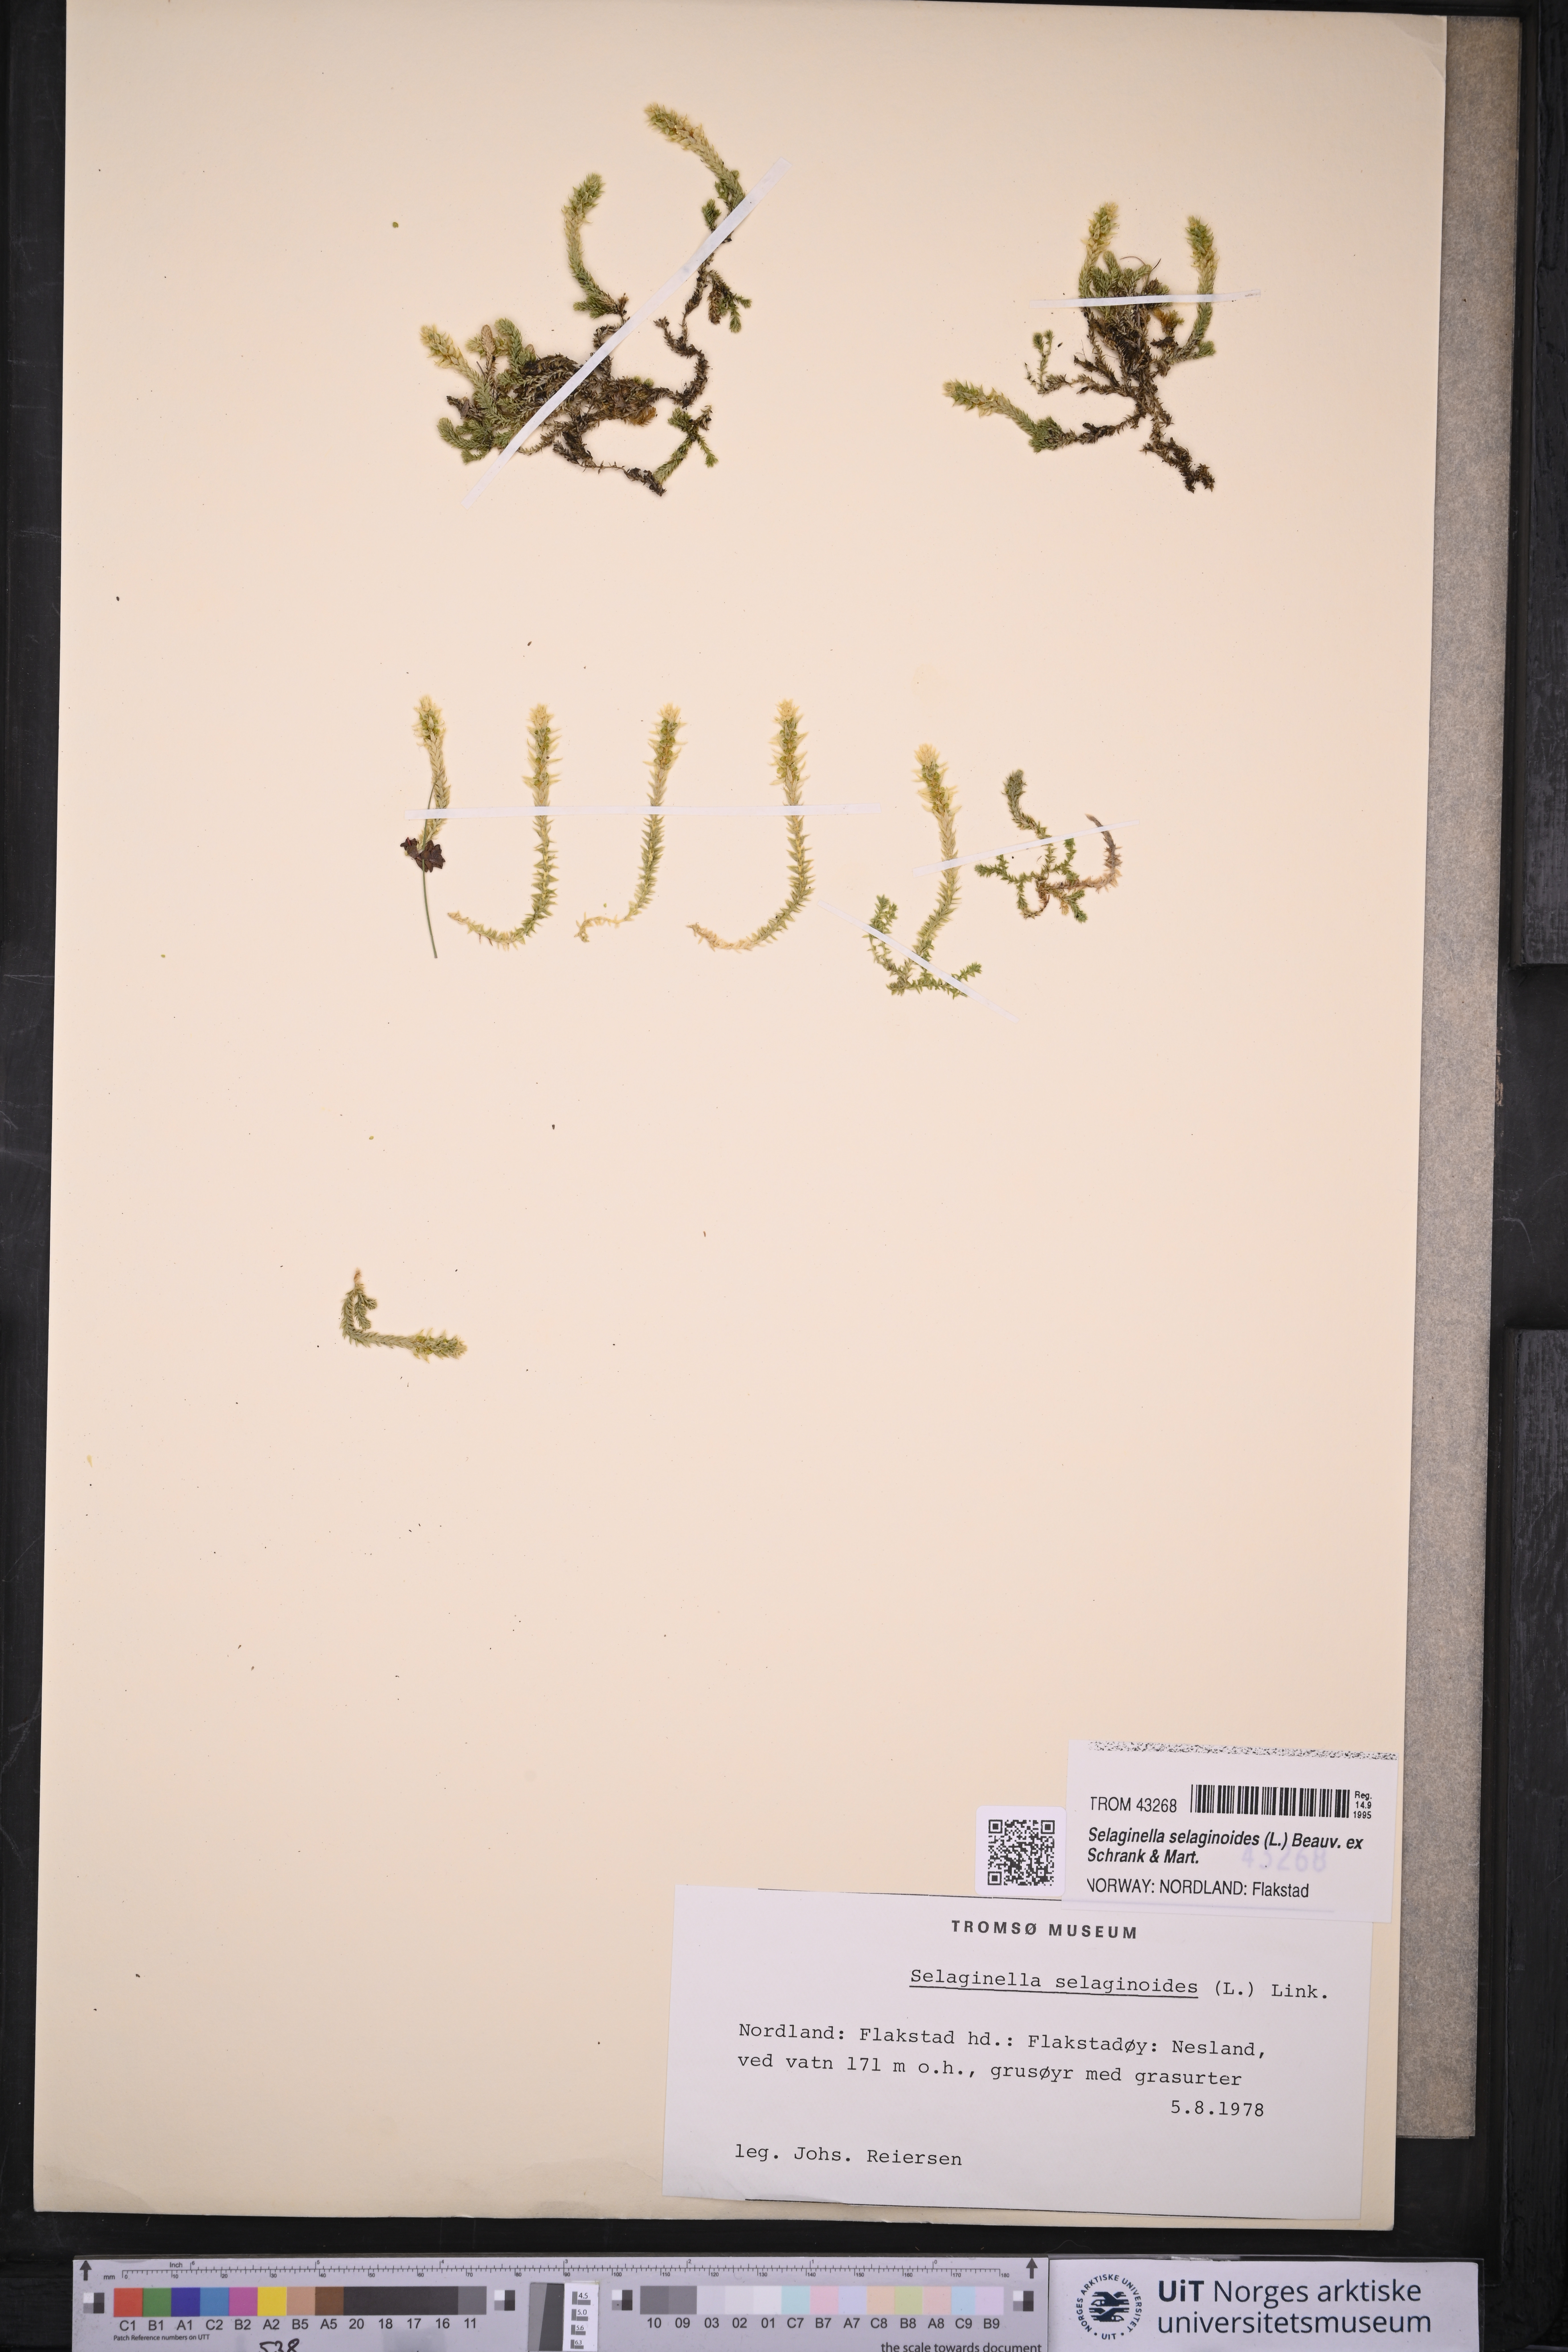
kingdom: Plantae
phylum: Tracheophyta
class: Lycopodiopsida
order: Selaginellales
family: Selaginellaceae
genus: Selaginella
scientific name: Selaginella selaginoides
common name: Prickly mountain-moss
